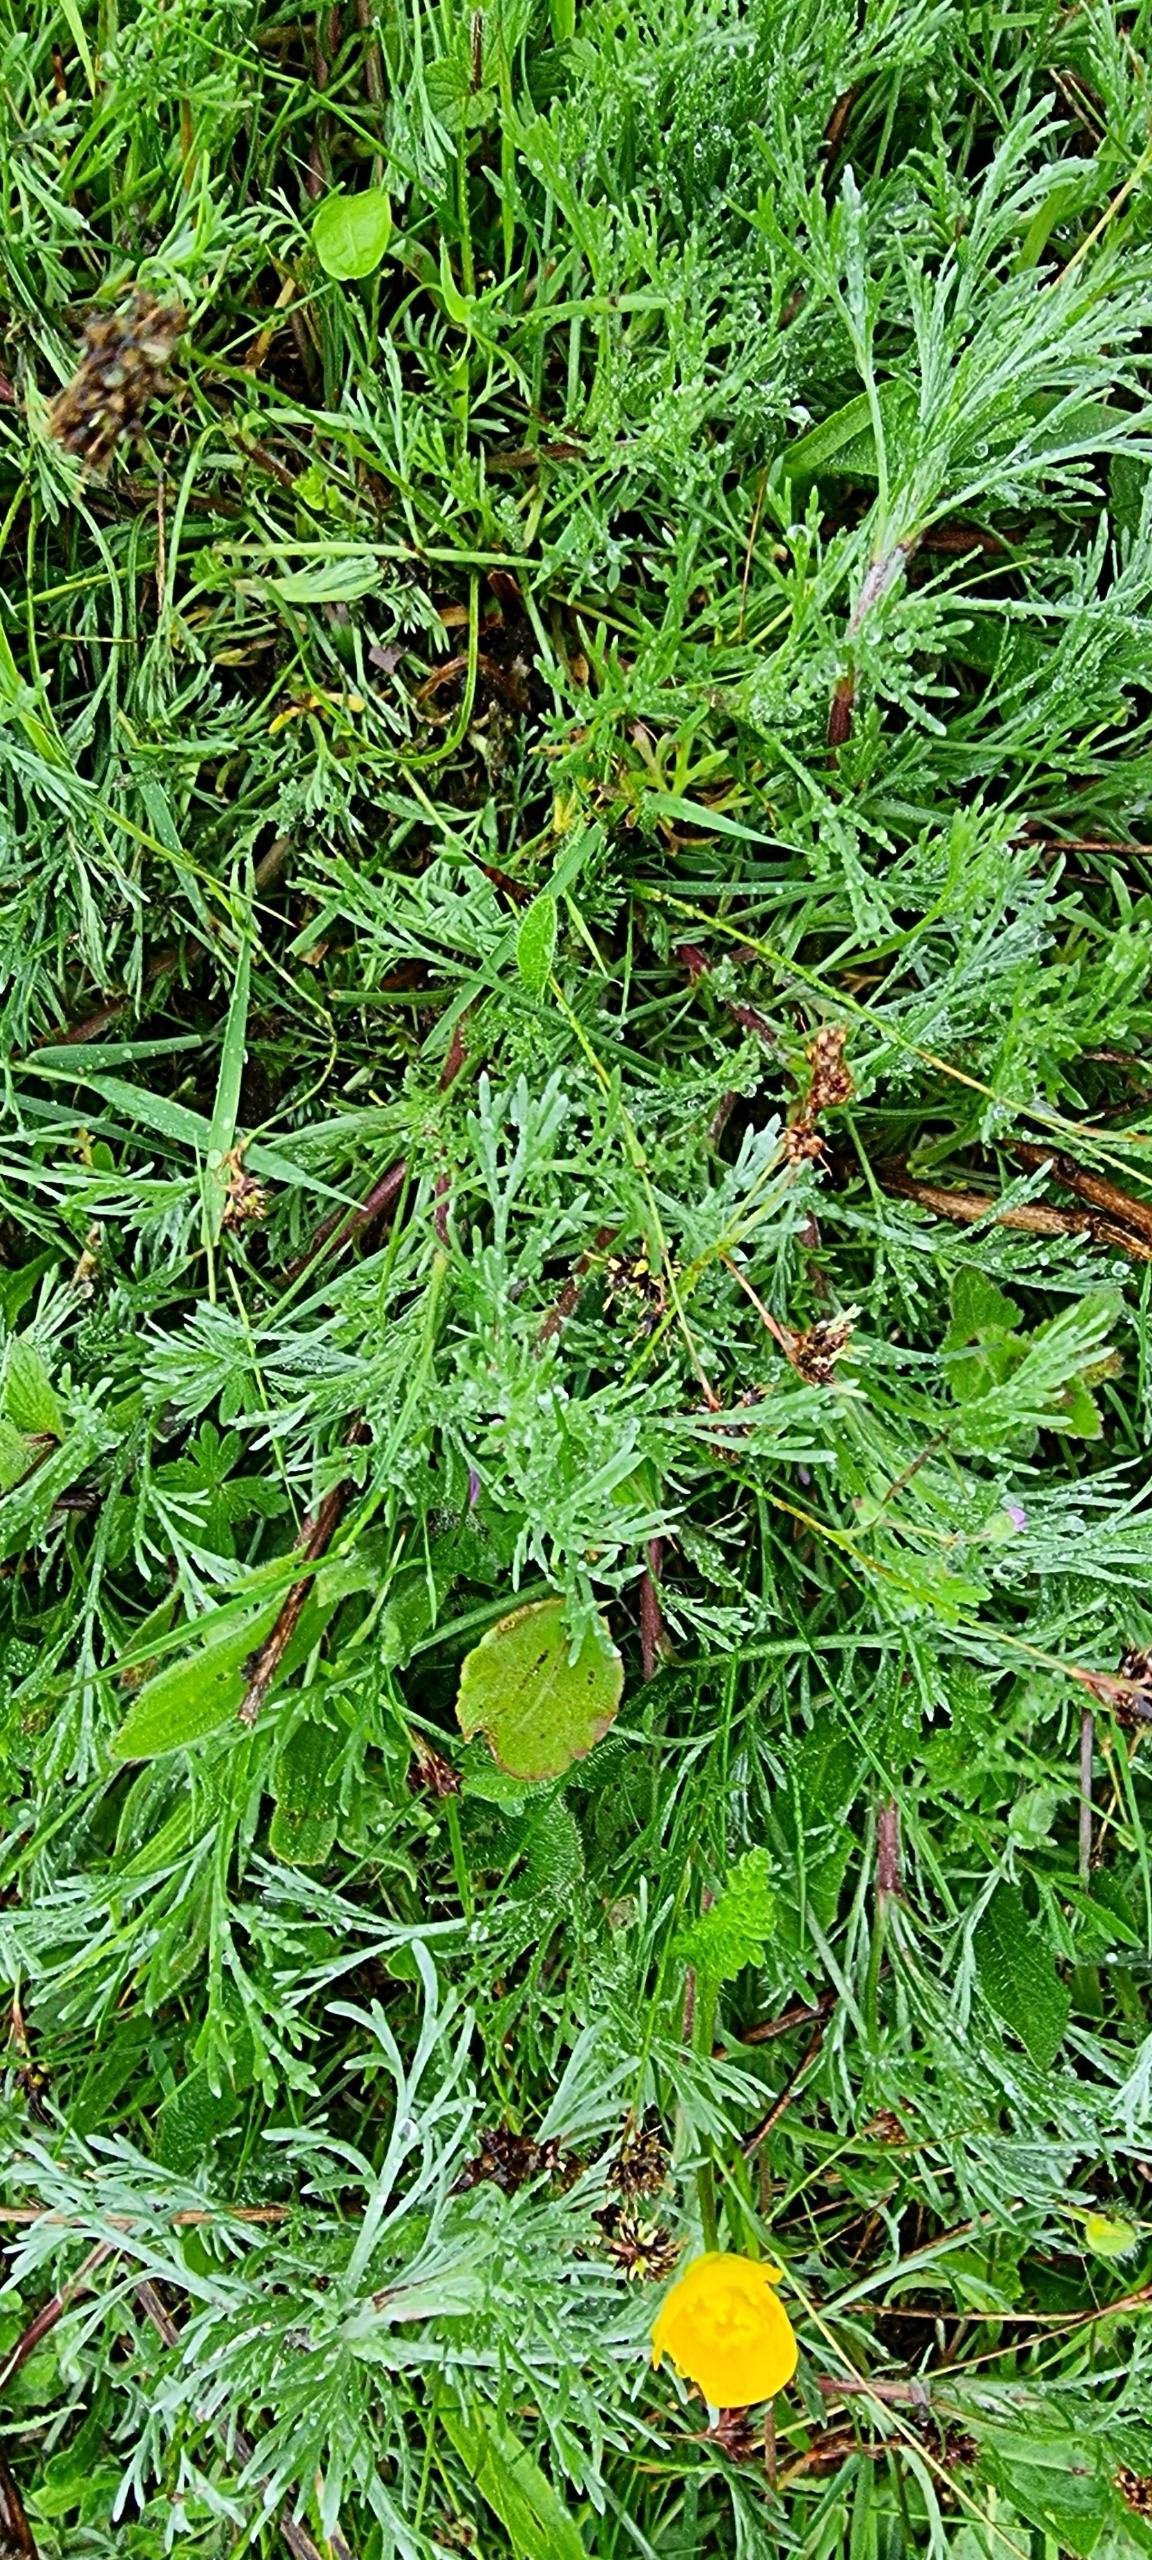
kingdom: Plantae
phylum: Tracheophyta
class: Magnoliopsida
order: Asterales
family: Asteraceae
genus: Artemisia
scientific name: Artemisia campestris
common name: Mark-bynke
